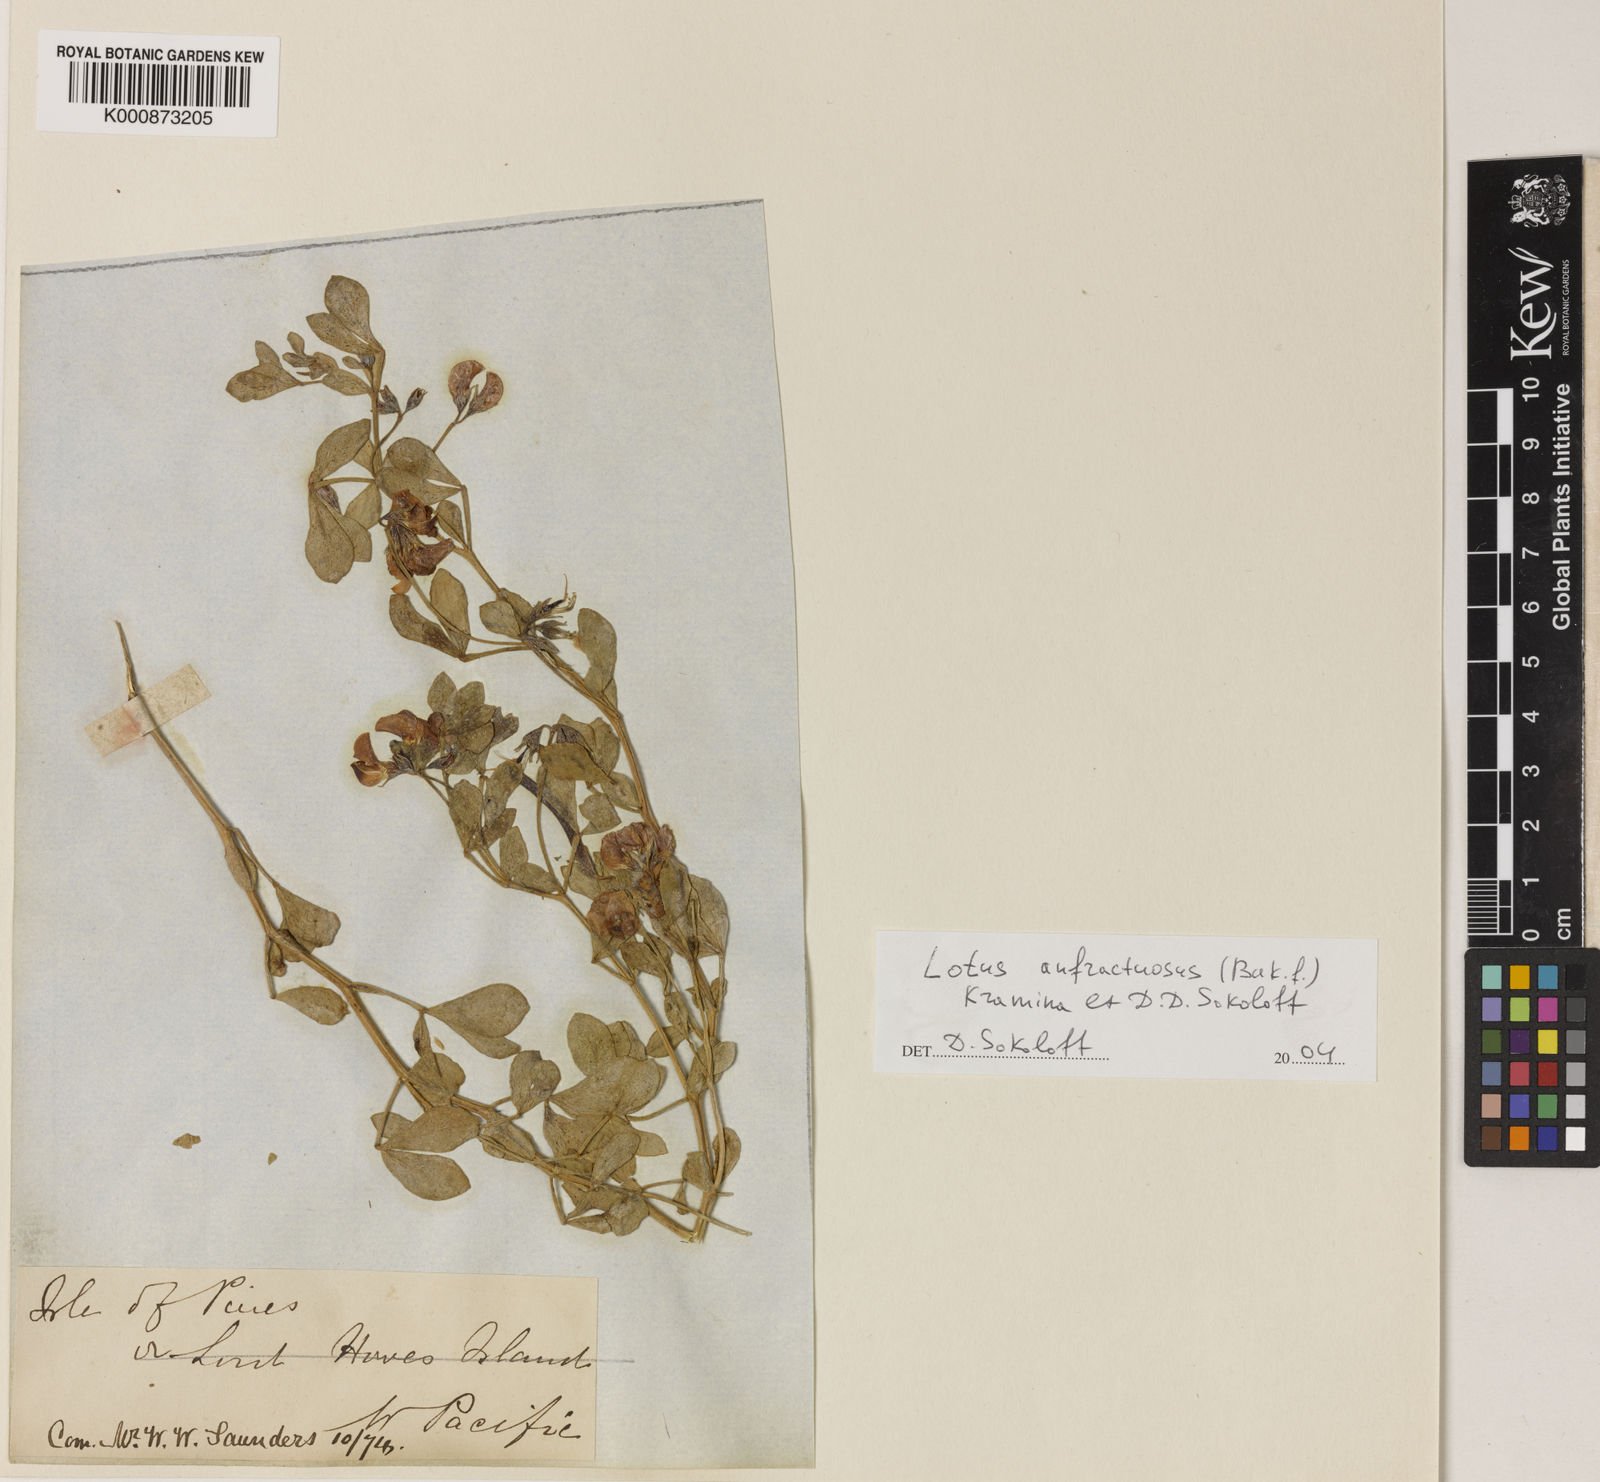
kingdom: Plantae
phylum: Tracheophyta
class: Magnoliopsida
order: Fabales
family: Fabaceae
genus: Lotus
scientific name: Lotus australis
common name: Australian trefoil
